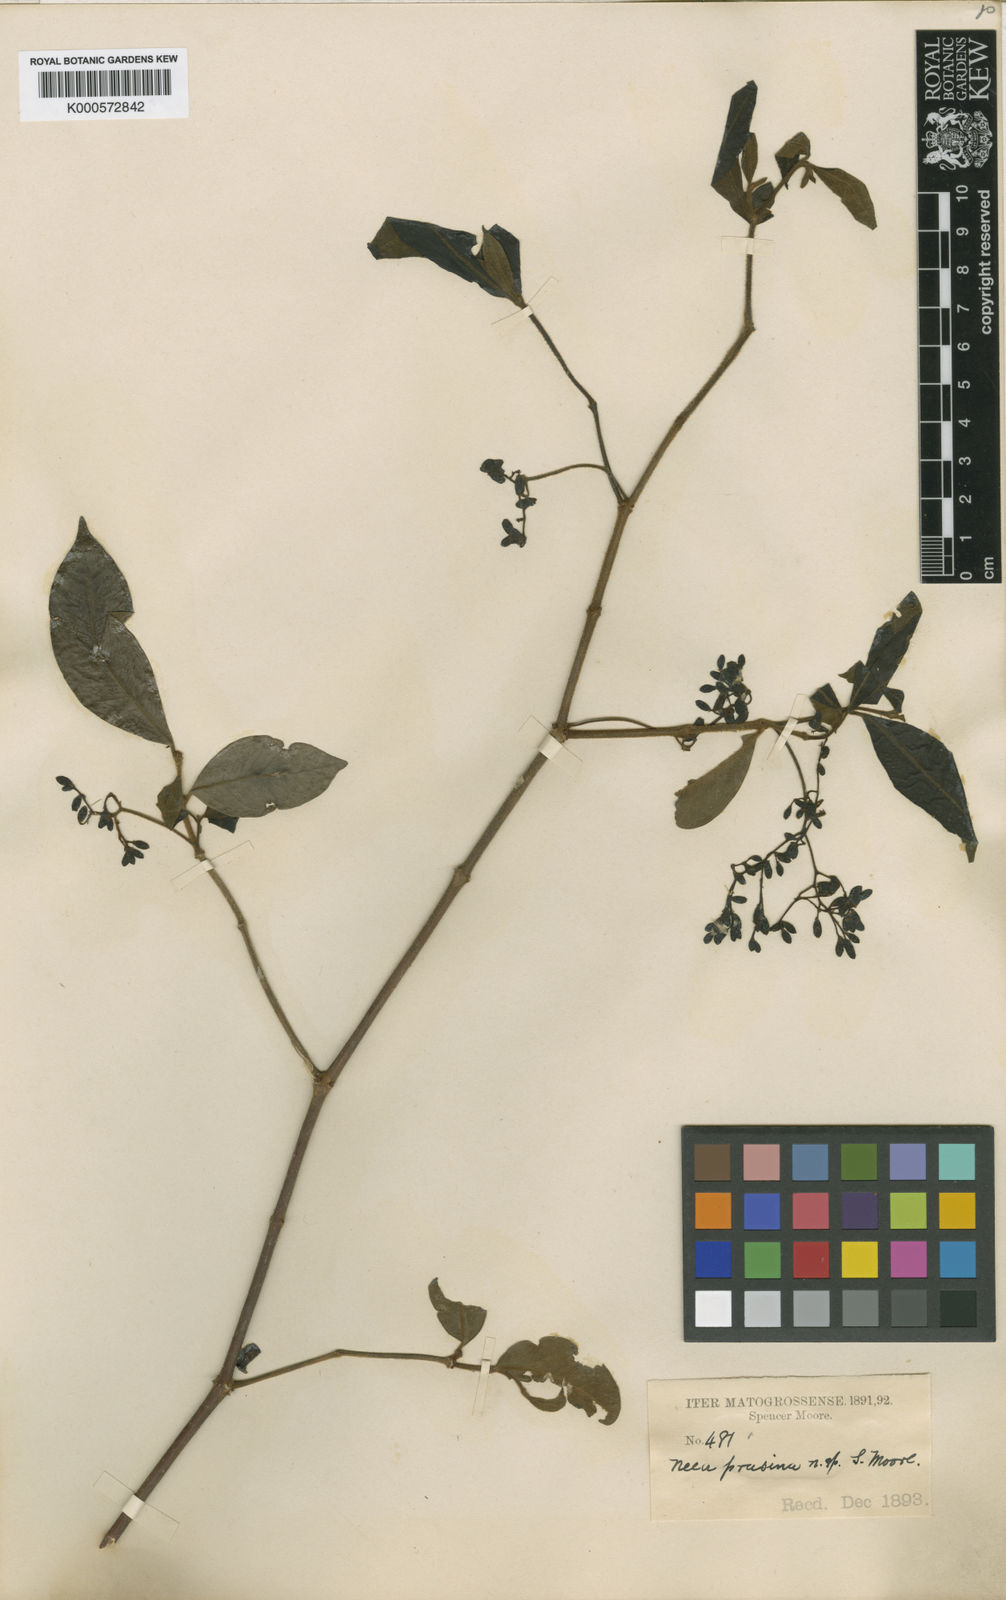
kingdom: Plantae
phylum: Tracheophyta
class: Magnoliopsida
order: Caryophyllales
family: Nyctaginaceae
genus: Neea
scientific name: Neea
